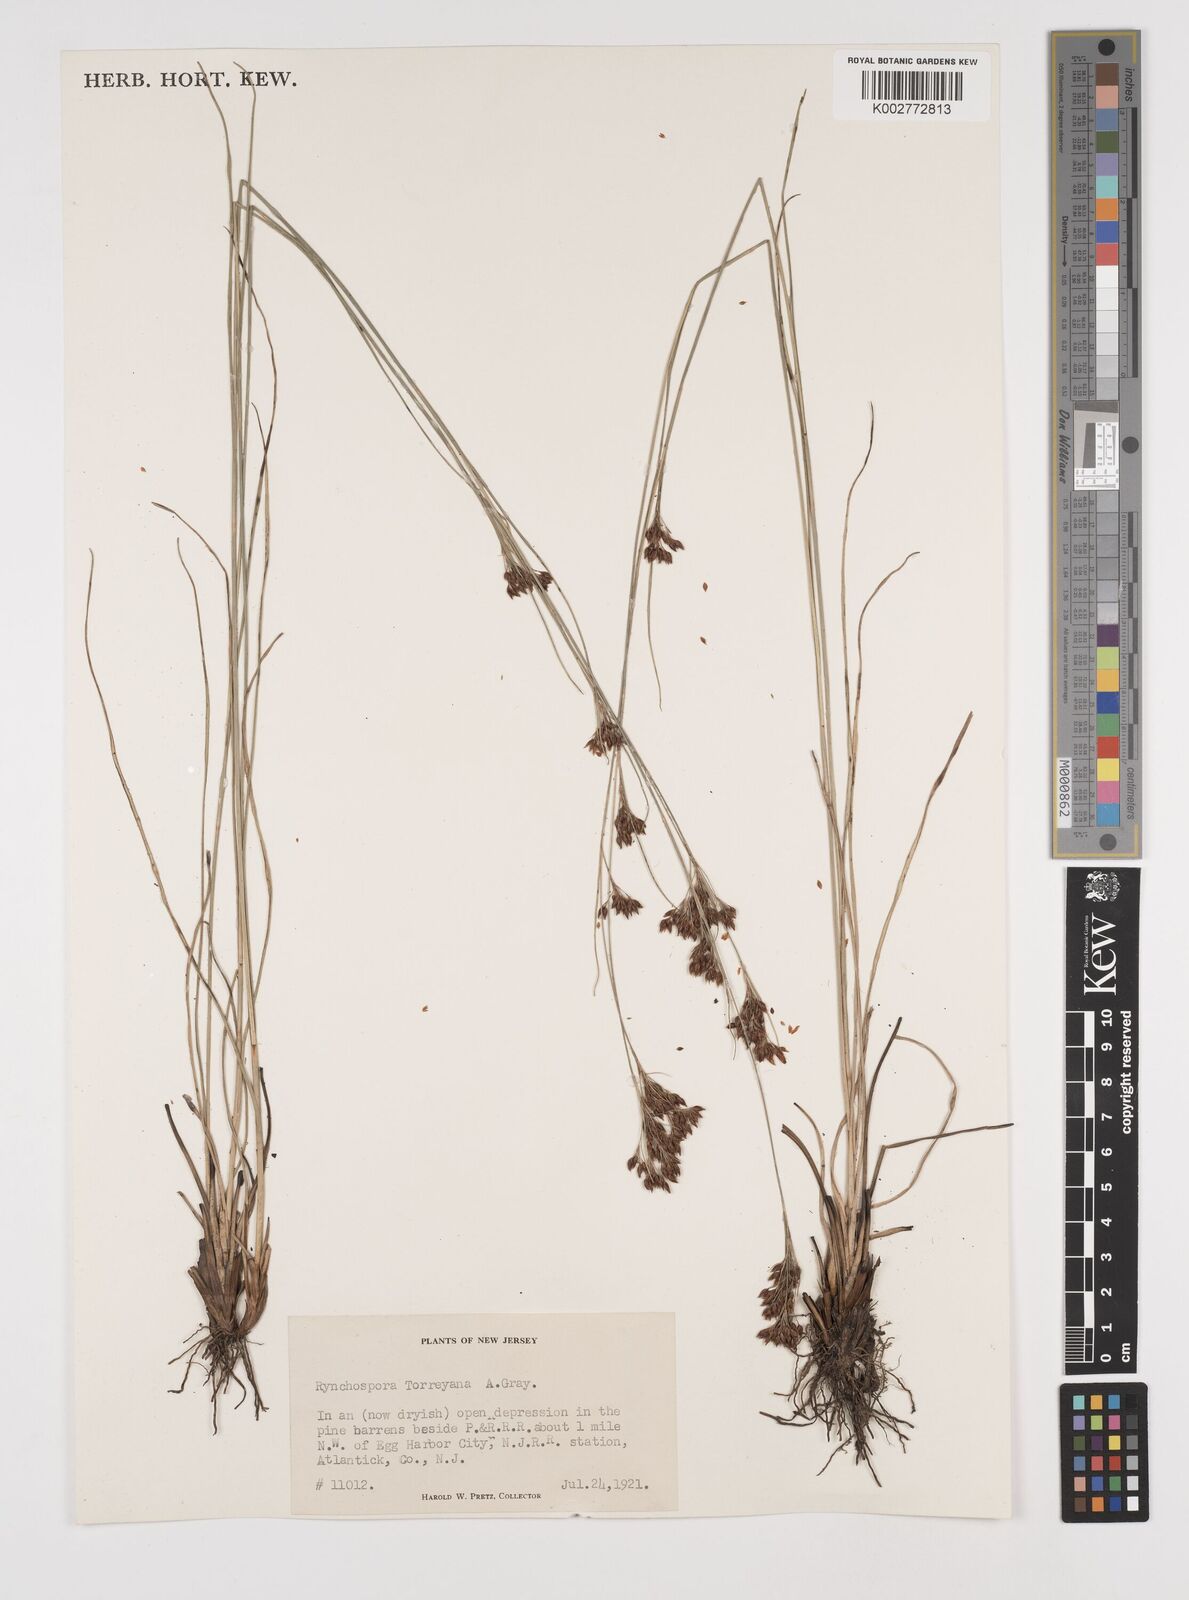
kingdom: Plantae
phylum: Tracheophyta
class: Liliopsida
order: Poales
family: Cyperaceae
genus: Rhynchospora
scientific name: Rhynchospora torreyana
